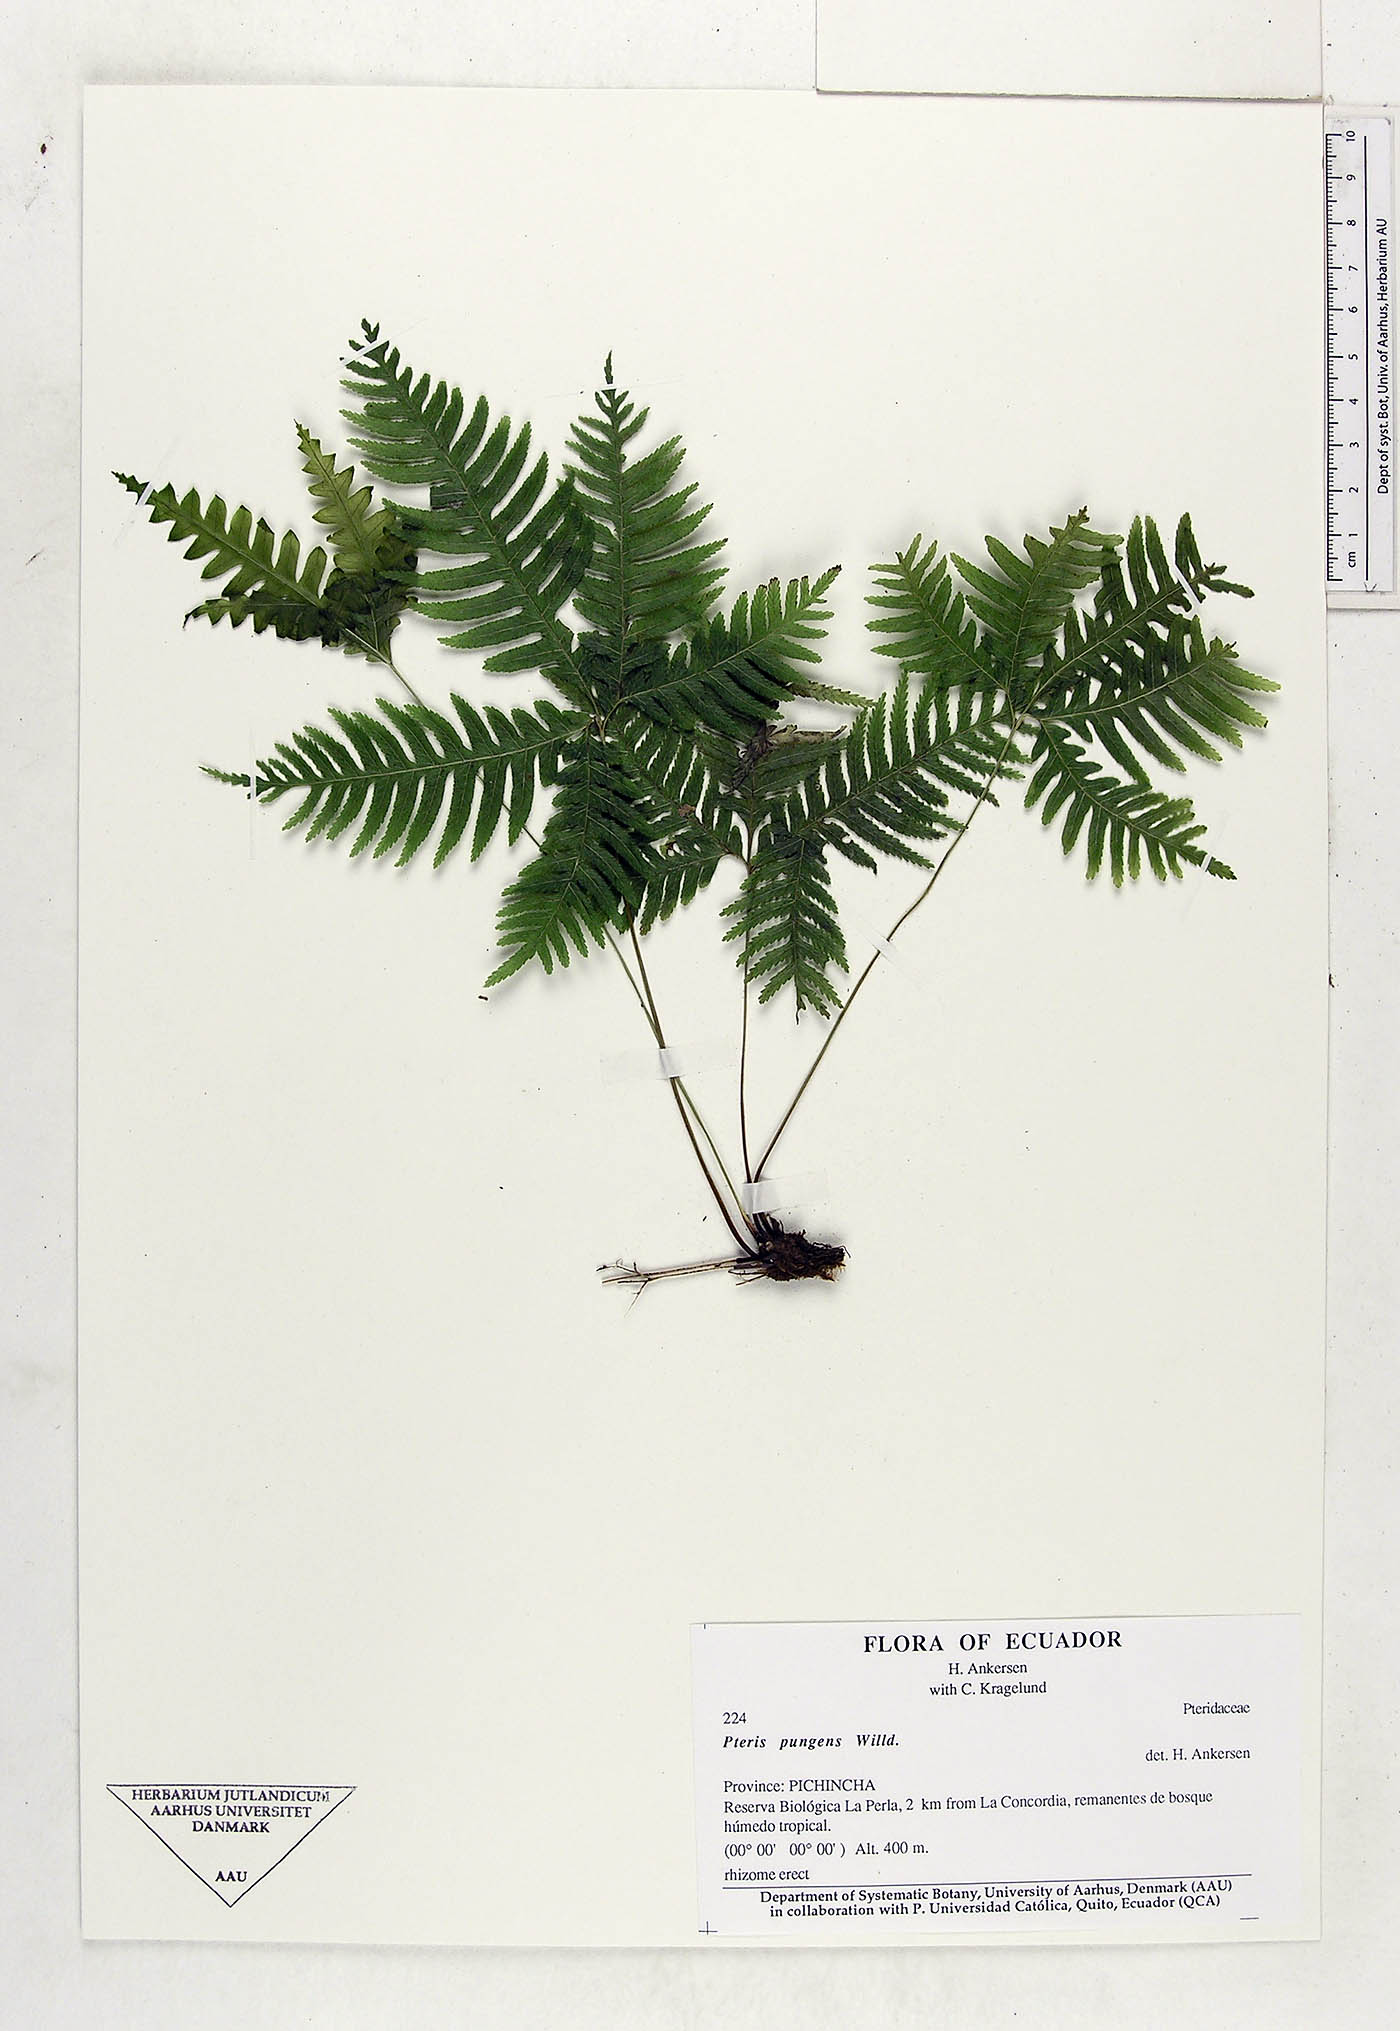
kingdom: Plantae
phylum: Tracheophyta
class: Polypodiopsida
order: Polypodiales
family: Pteridaceae
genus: Pteris
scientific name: Pteris pungens
